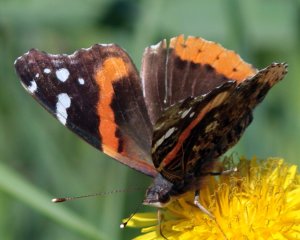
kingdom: Animalia
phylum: Arthropoda
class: Insecta
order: Lepidoptera
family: Nymphalidae
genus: Vanessa
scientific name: Vanessa atalanta
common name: Red Admiral
